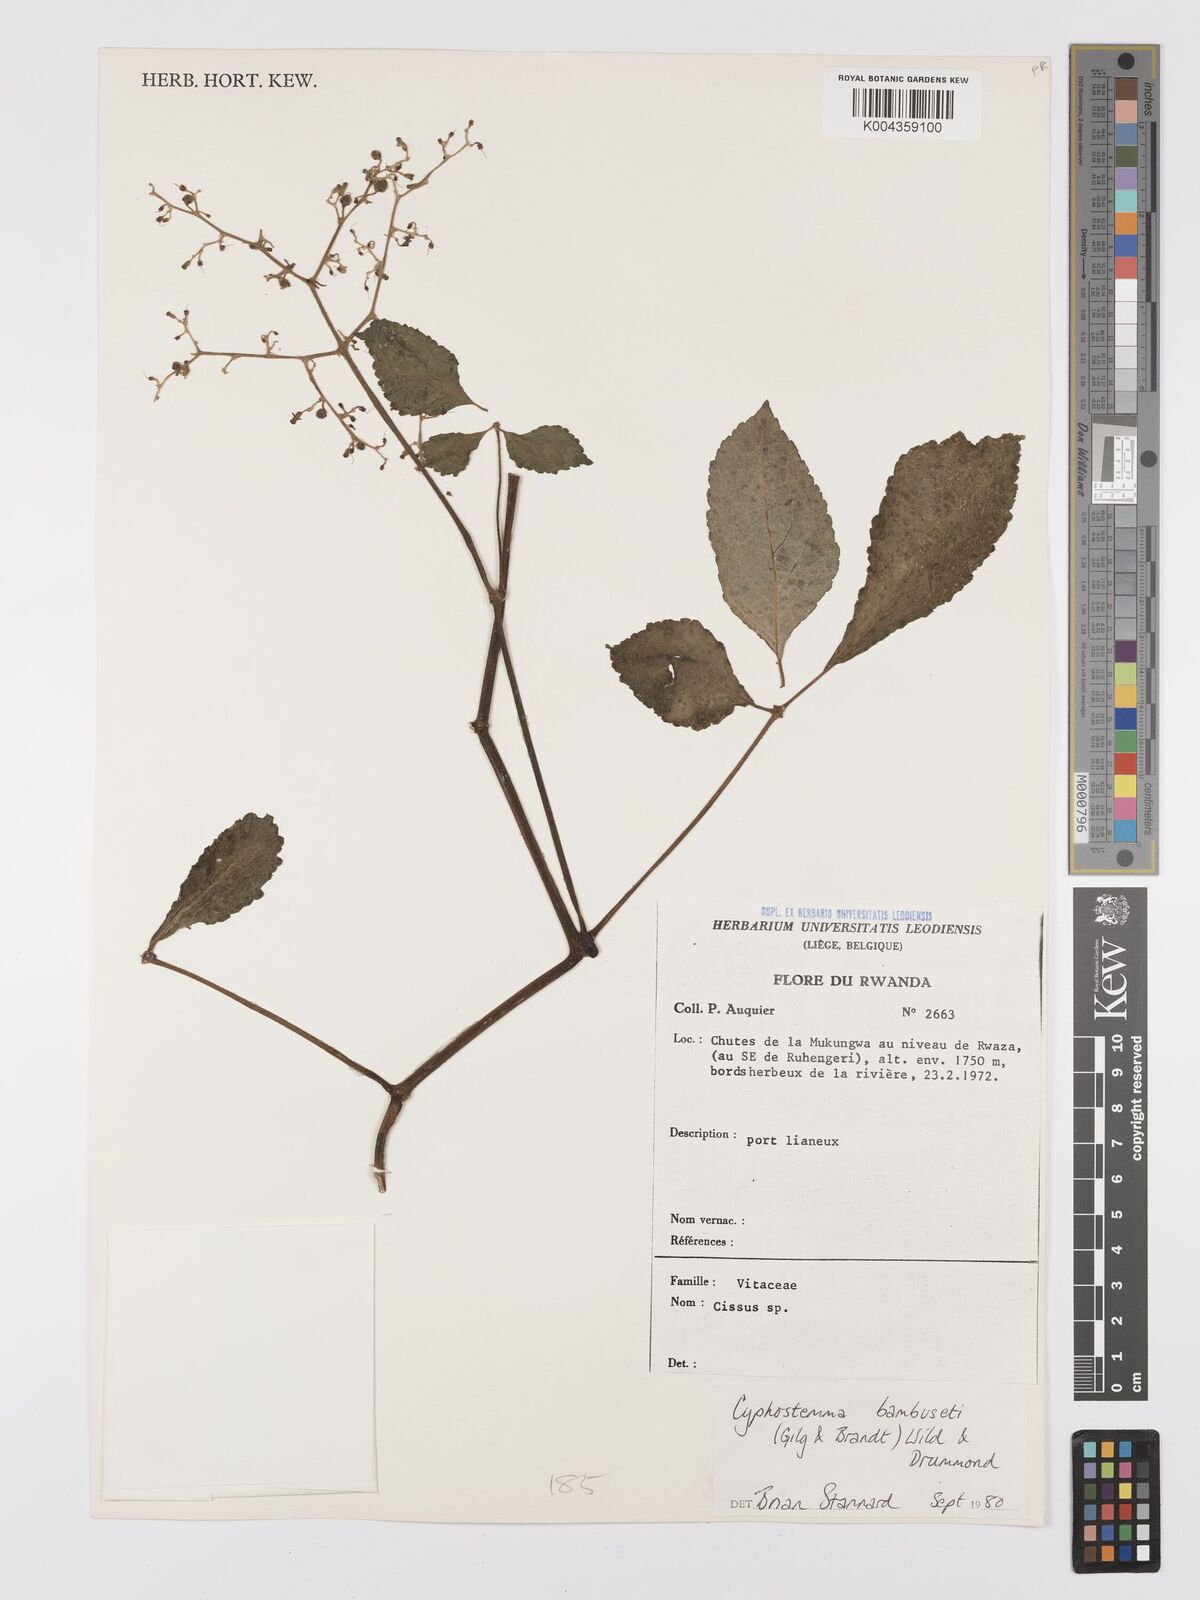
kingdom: Plantae
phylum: Tracheophyta
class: Magnoliopsida
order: Vitales
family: Vitaceae
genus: Cyphostemma
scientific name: Cyphostemma bambuseti
